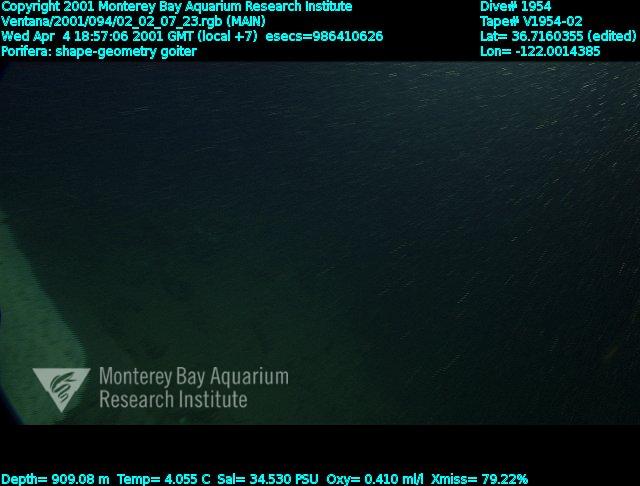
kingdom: Animalia
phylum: Porifera
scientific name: Porifera
